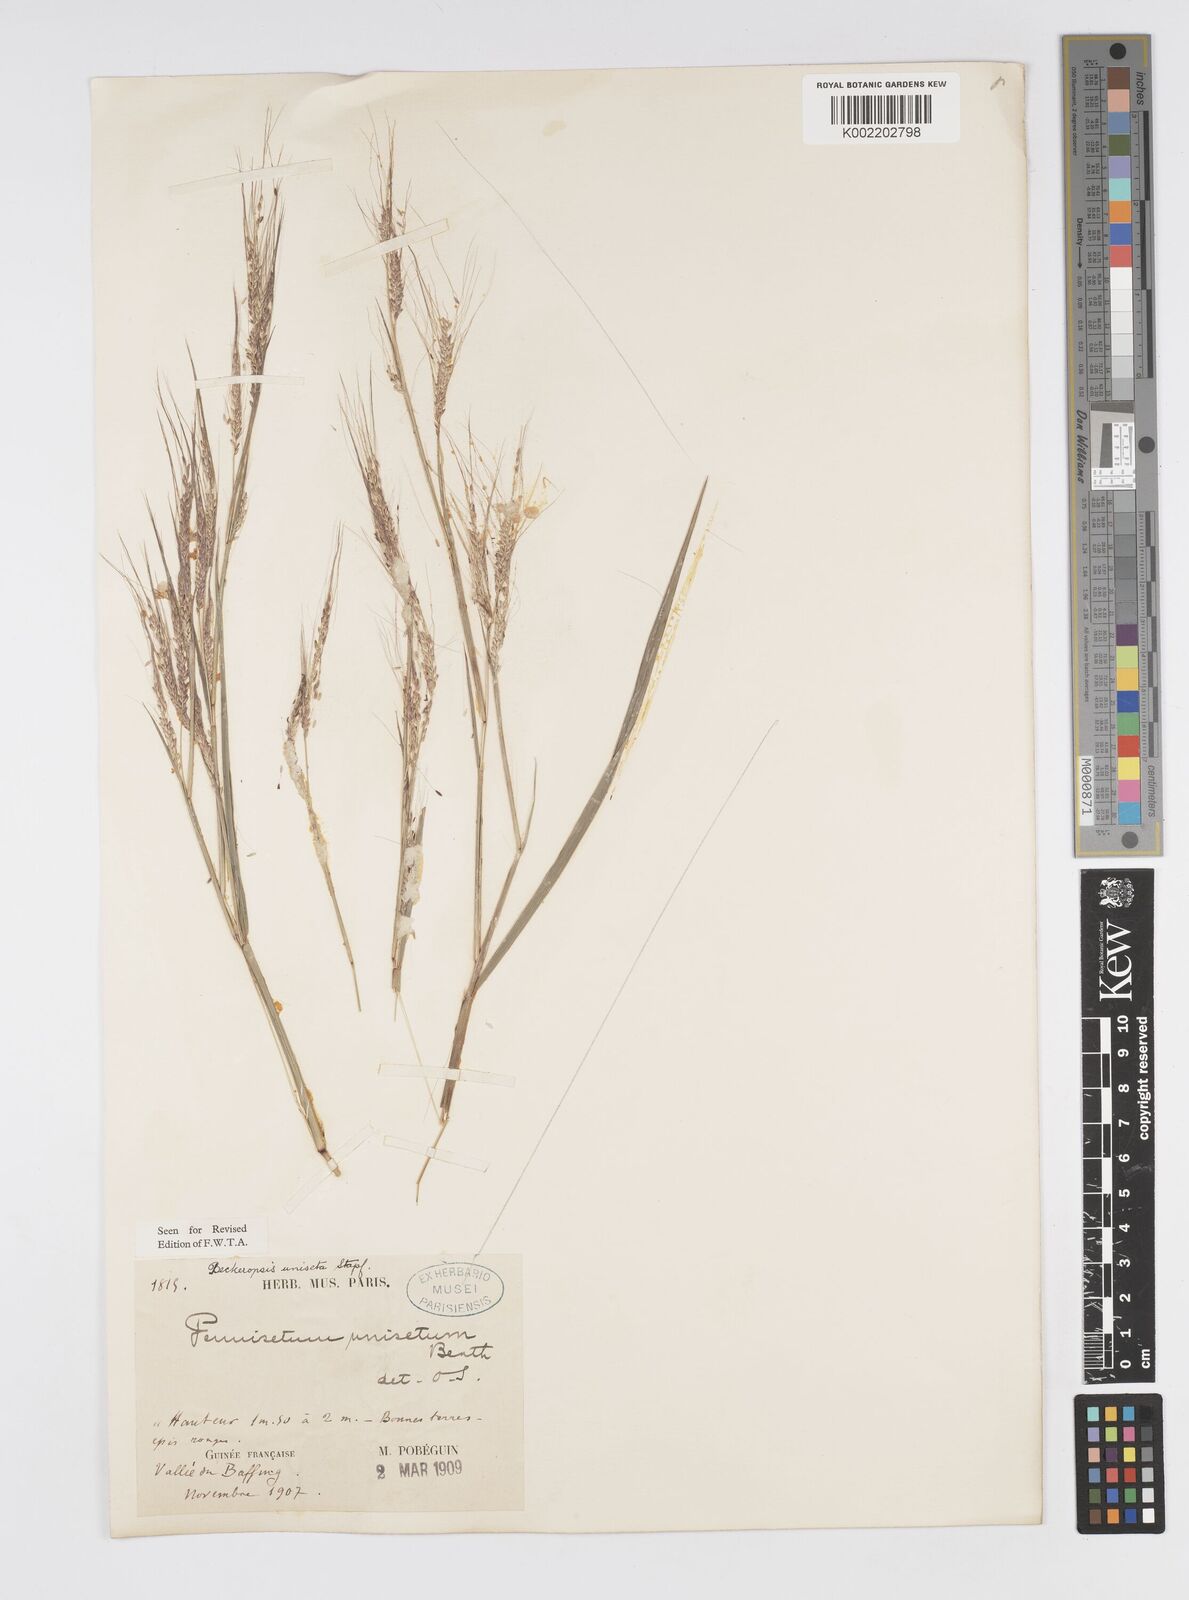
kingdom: Plantae
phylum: Tracheophyta
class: Liliopsida
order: Poales
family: Poaceae
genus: Cenchrus
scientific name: Cenchrus unisetus
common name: Natal grass
